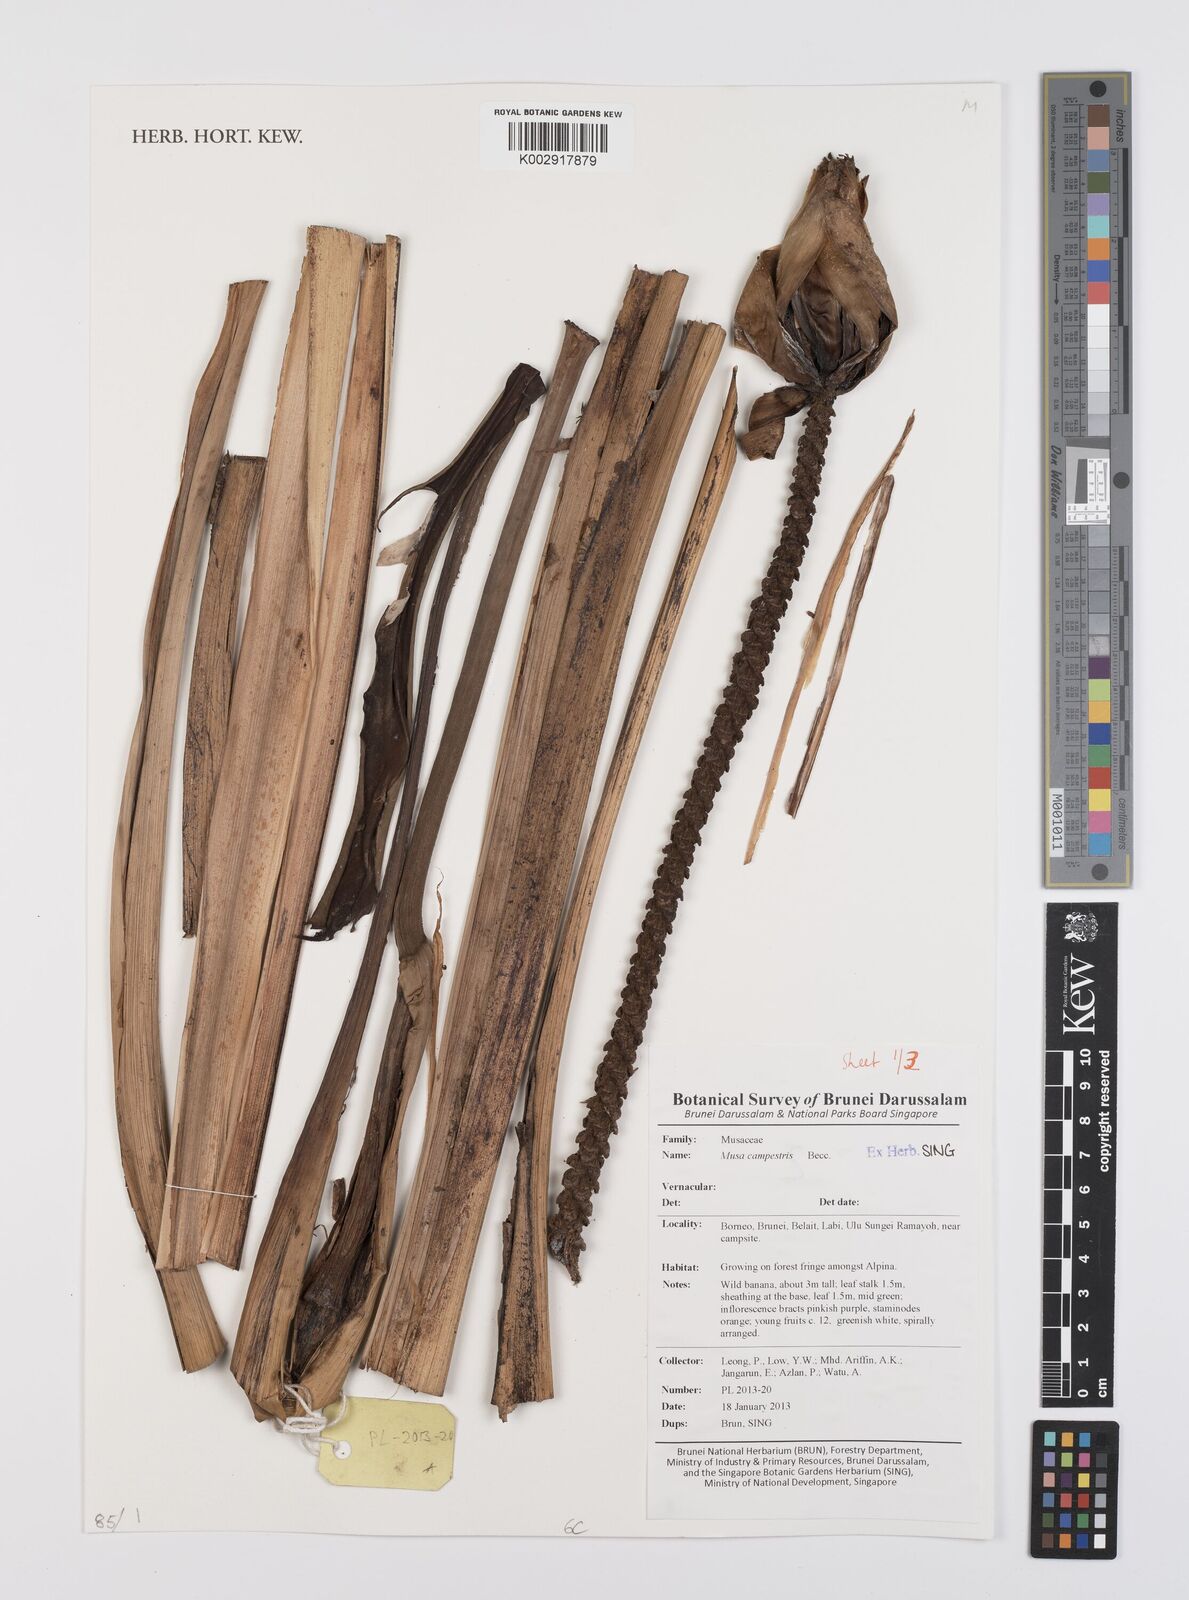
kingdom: Plantae
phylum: Tracheophyta
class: Liliopsida
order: Zingiberales
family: Musaceae
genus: Musa
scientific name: Musa campestris
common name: Swamp banana
